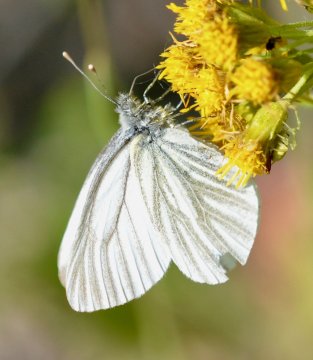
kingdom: Animalia
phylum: Arthropoda
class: Insecta
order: Lepidoptera
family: Pieridae
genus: Pieris
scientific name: Pieris angelika
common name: Arctic White
